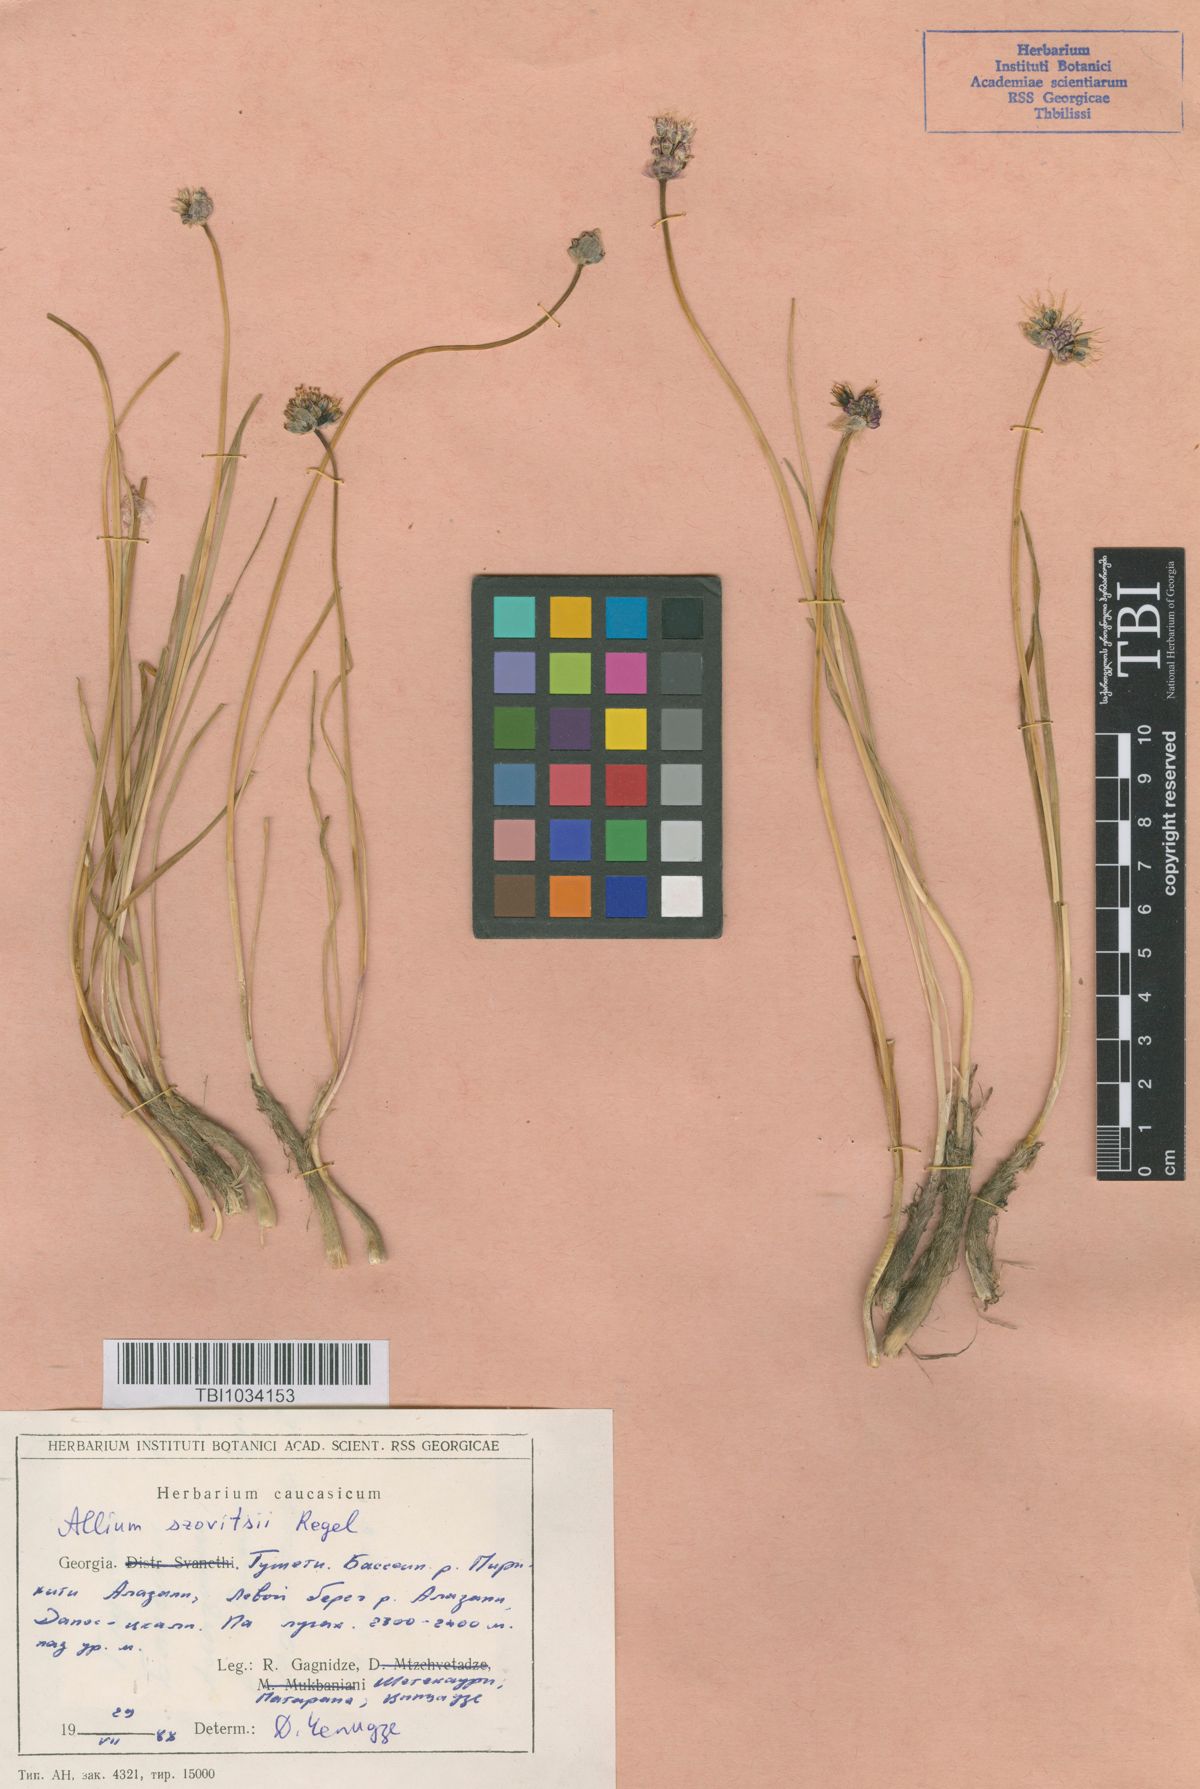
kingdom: Plantae
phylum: Tracheophyta
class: Liliopsida
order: Asparagales
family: Amaryllidaceae
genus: Allium
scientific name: Allium szovitsii
